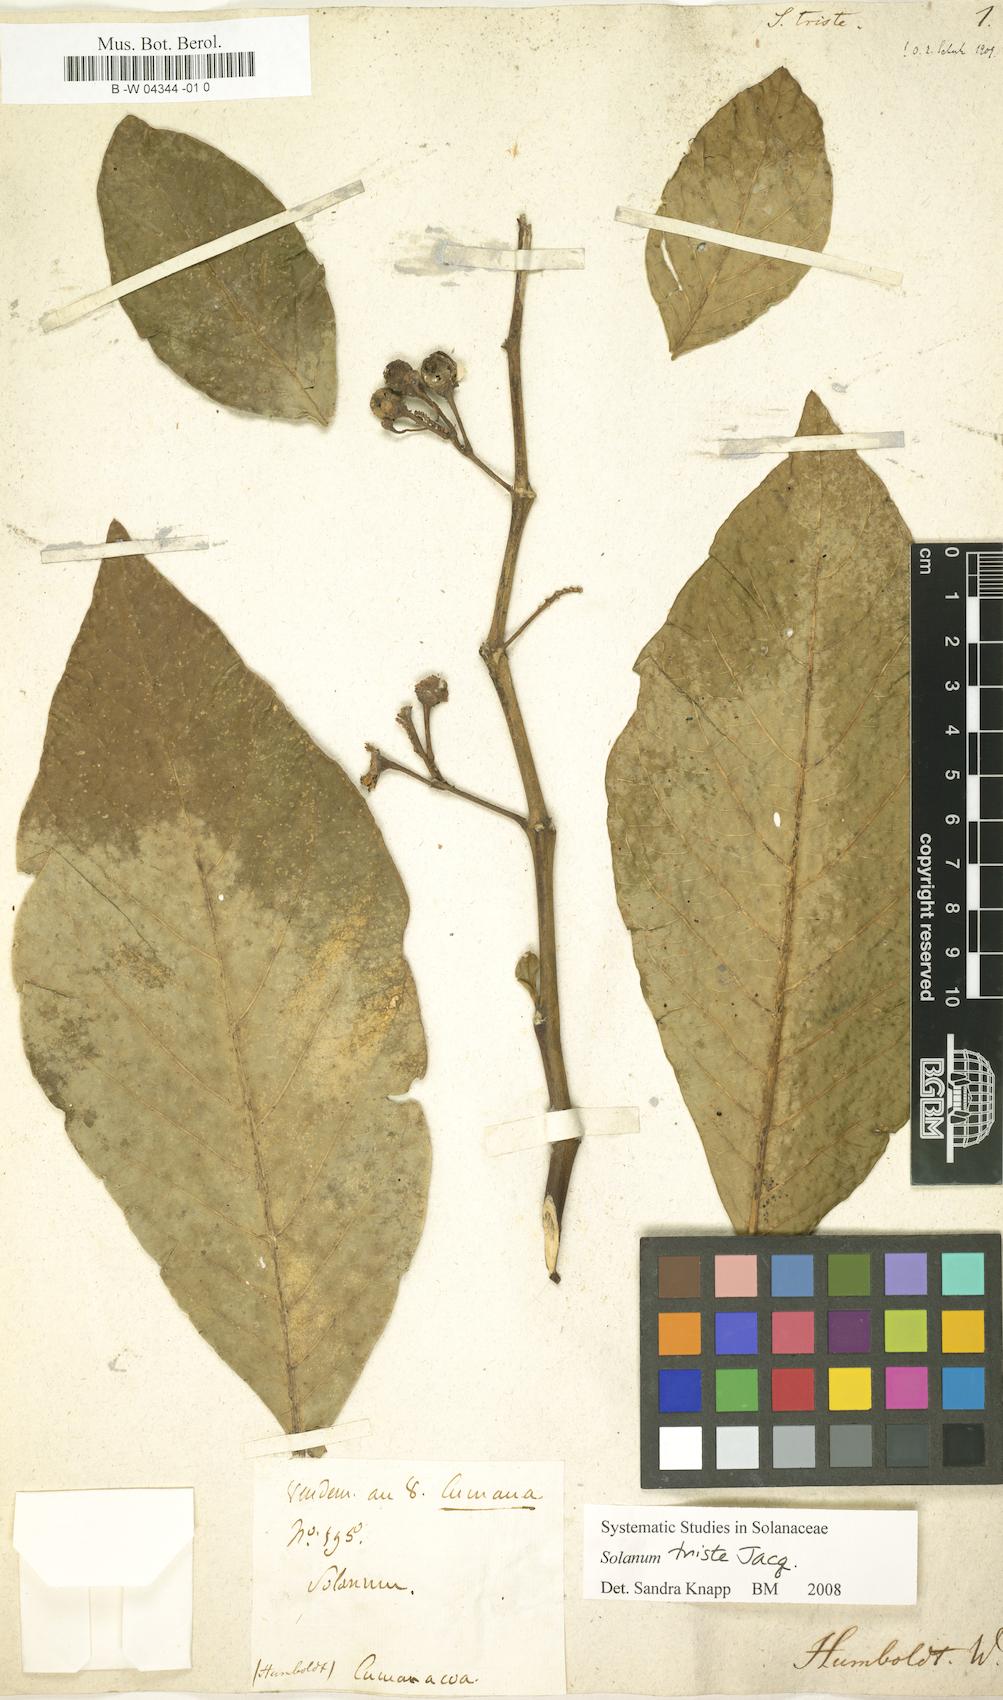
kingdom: Plantae
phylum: Tracheophyta
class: Magnoliopsida
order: Solanales
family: Solanaceae
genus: Solanum
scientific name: Solanum triste
